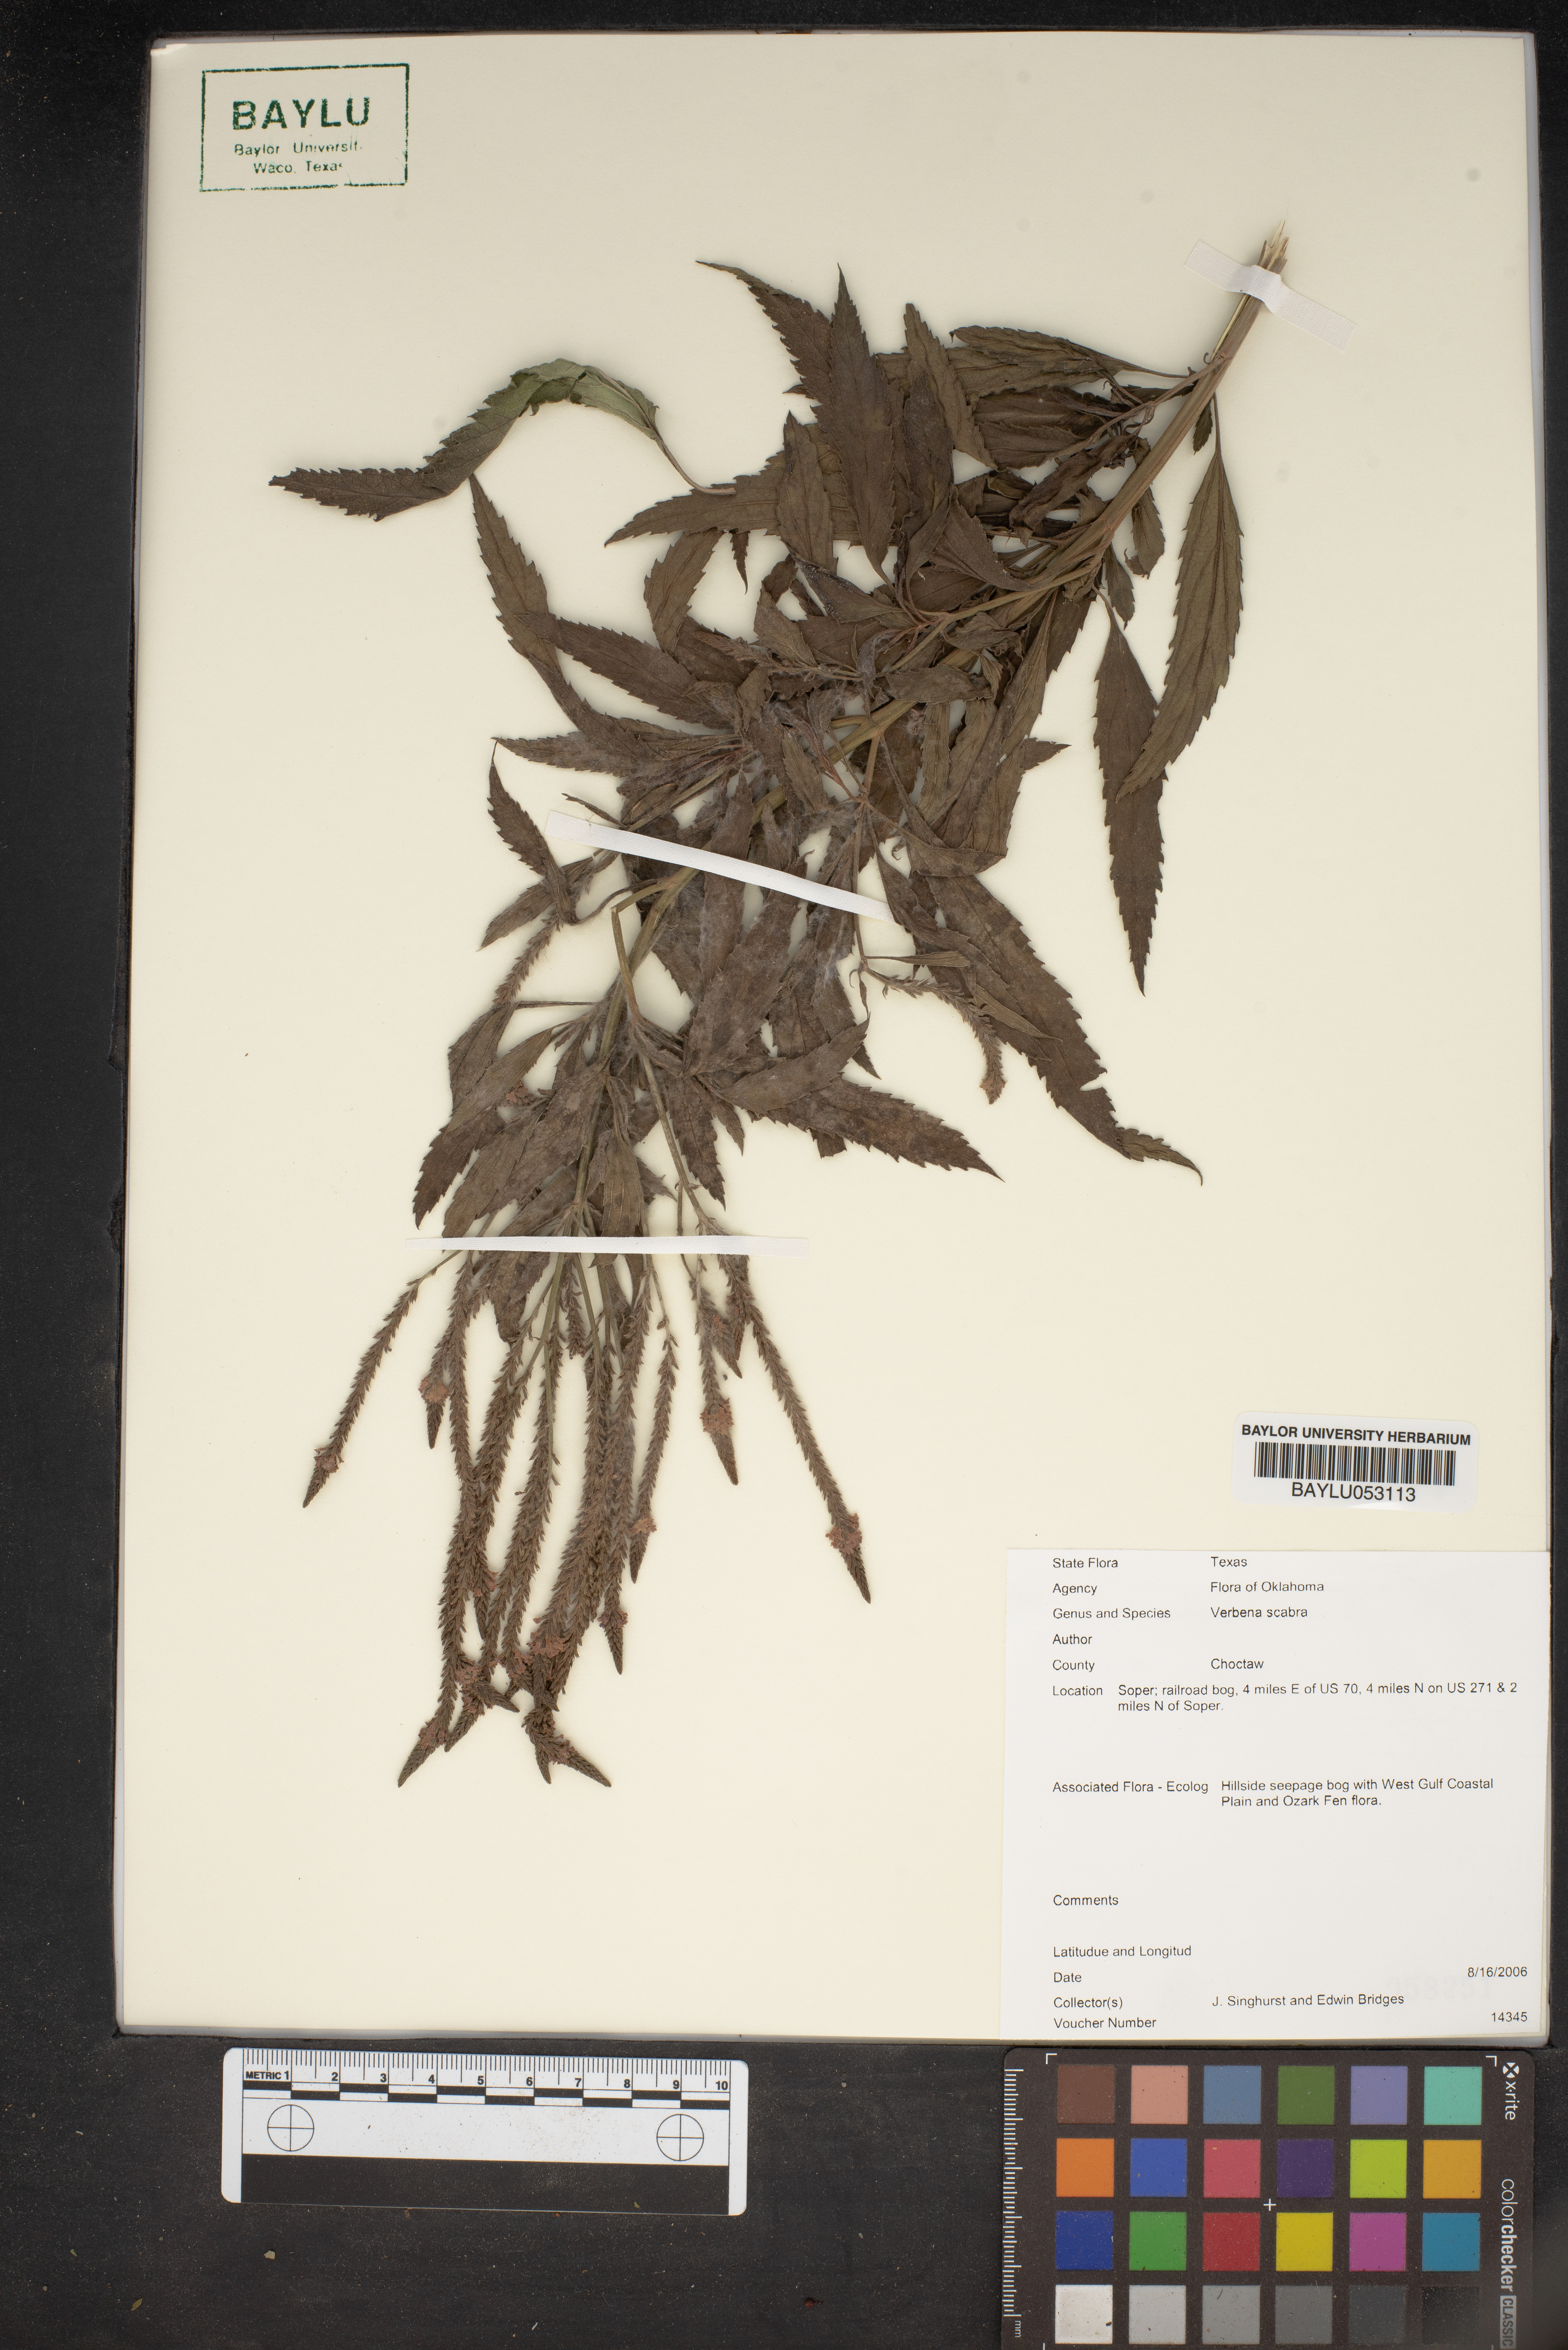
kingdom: Plantae
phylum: Tracheophyta
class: Magnoliopsida
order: Lamiales
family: Verbenaceae
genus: Verbena
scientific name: Verbena scabra
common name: Sandpaper vervain
